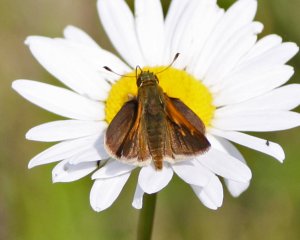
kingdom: Animalia
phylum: Arthropoda
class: Insecta
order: Lepidoptera
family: Hesperiidae
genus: Polites
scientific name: Polites themistocles
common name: Tawny-edged Skipper
